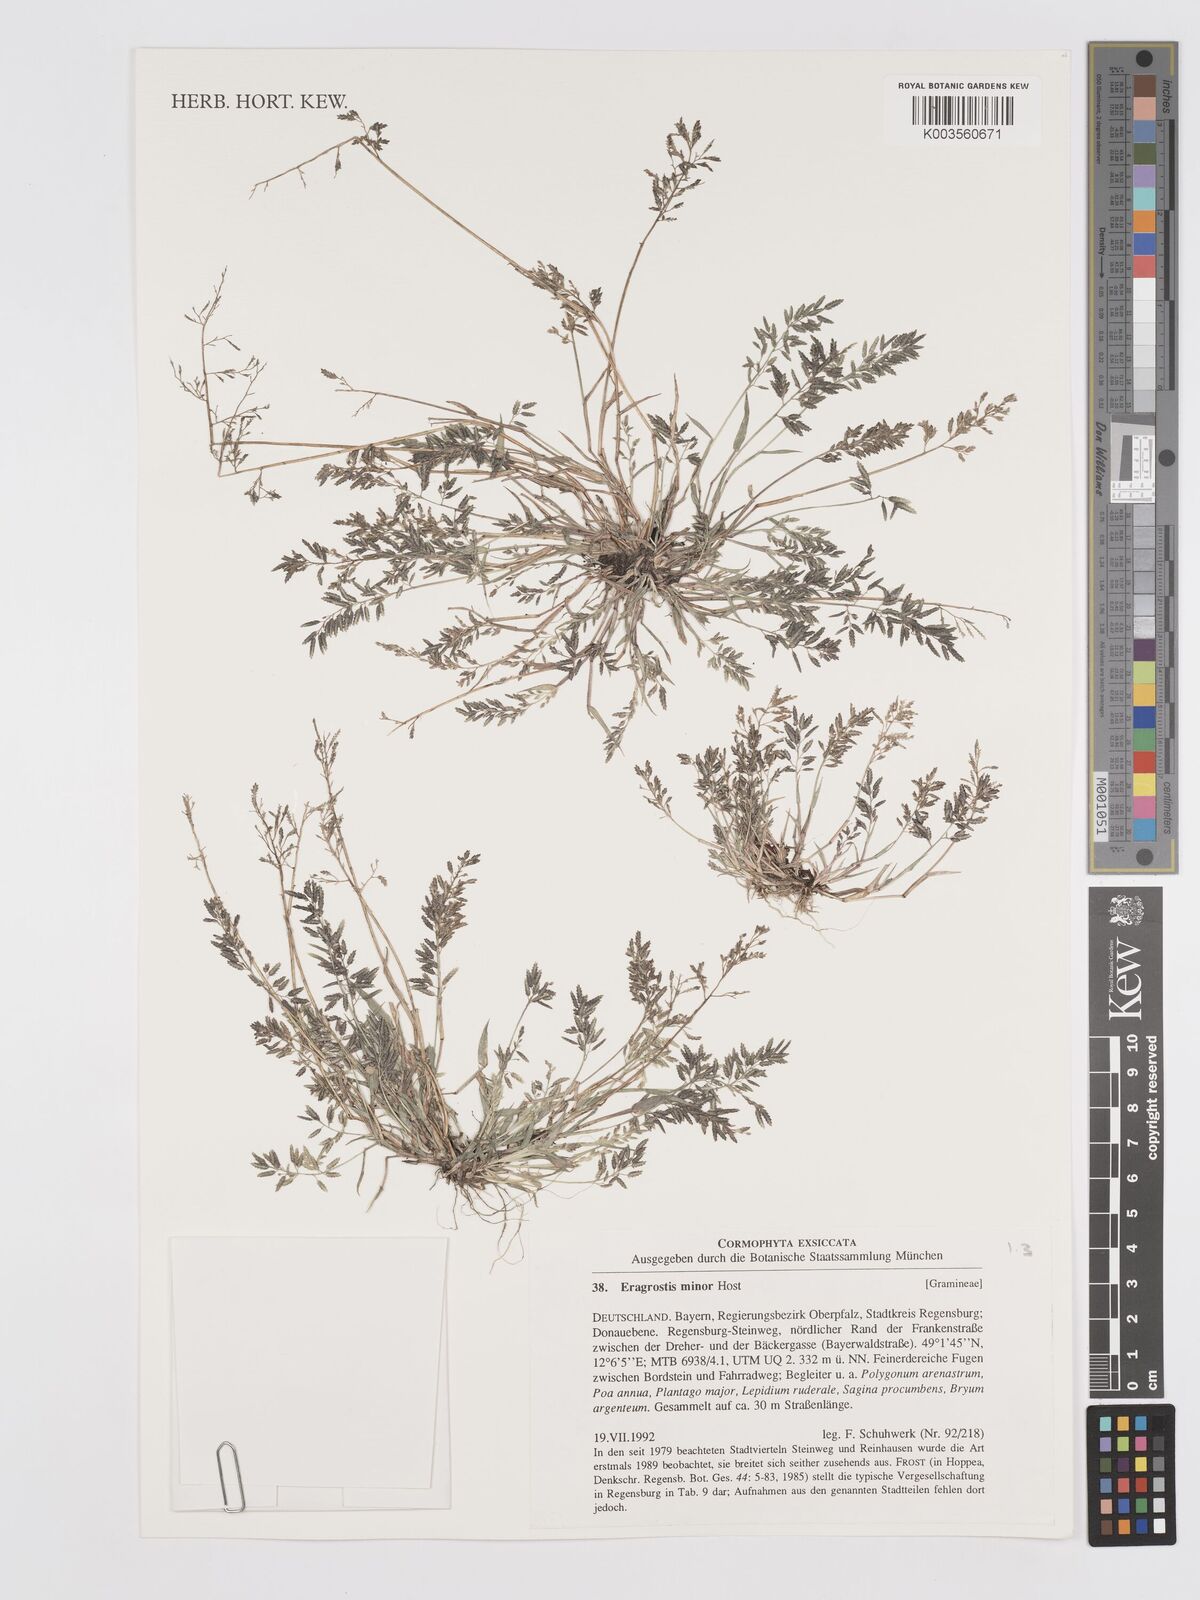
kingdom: Plantae
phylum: Tracheophyta
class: Liliopsida
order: Poales
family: Poaceae
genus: Eragrostis
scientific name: Eragrostis minor
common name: Small love-grass
